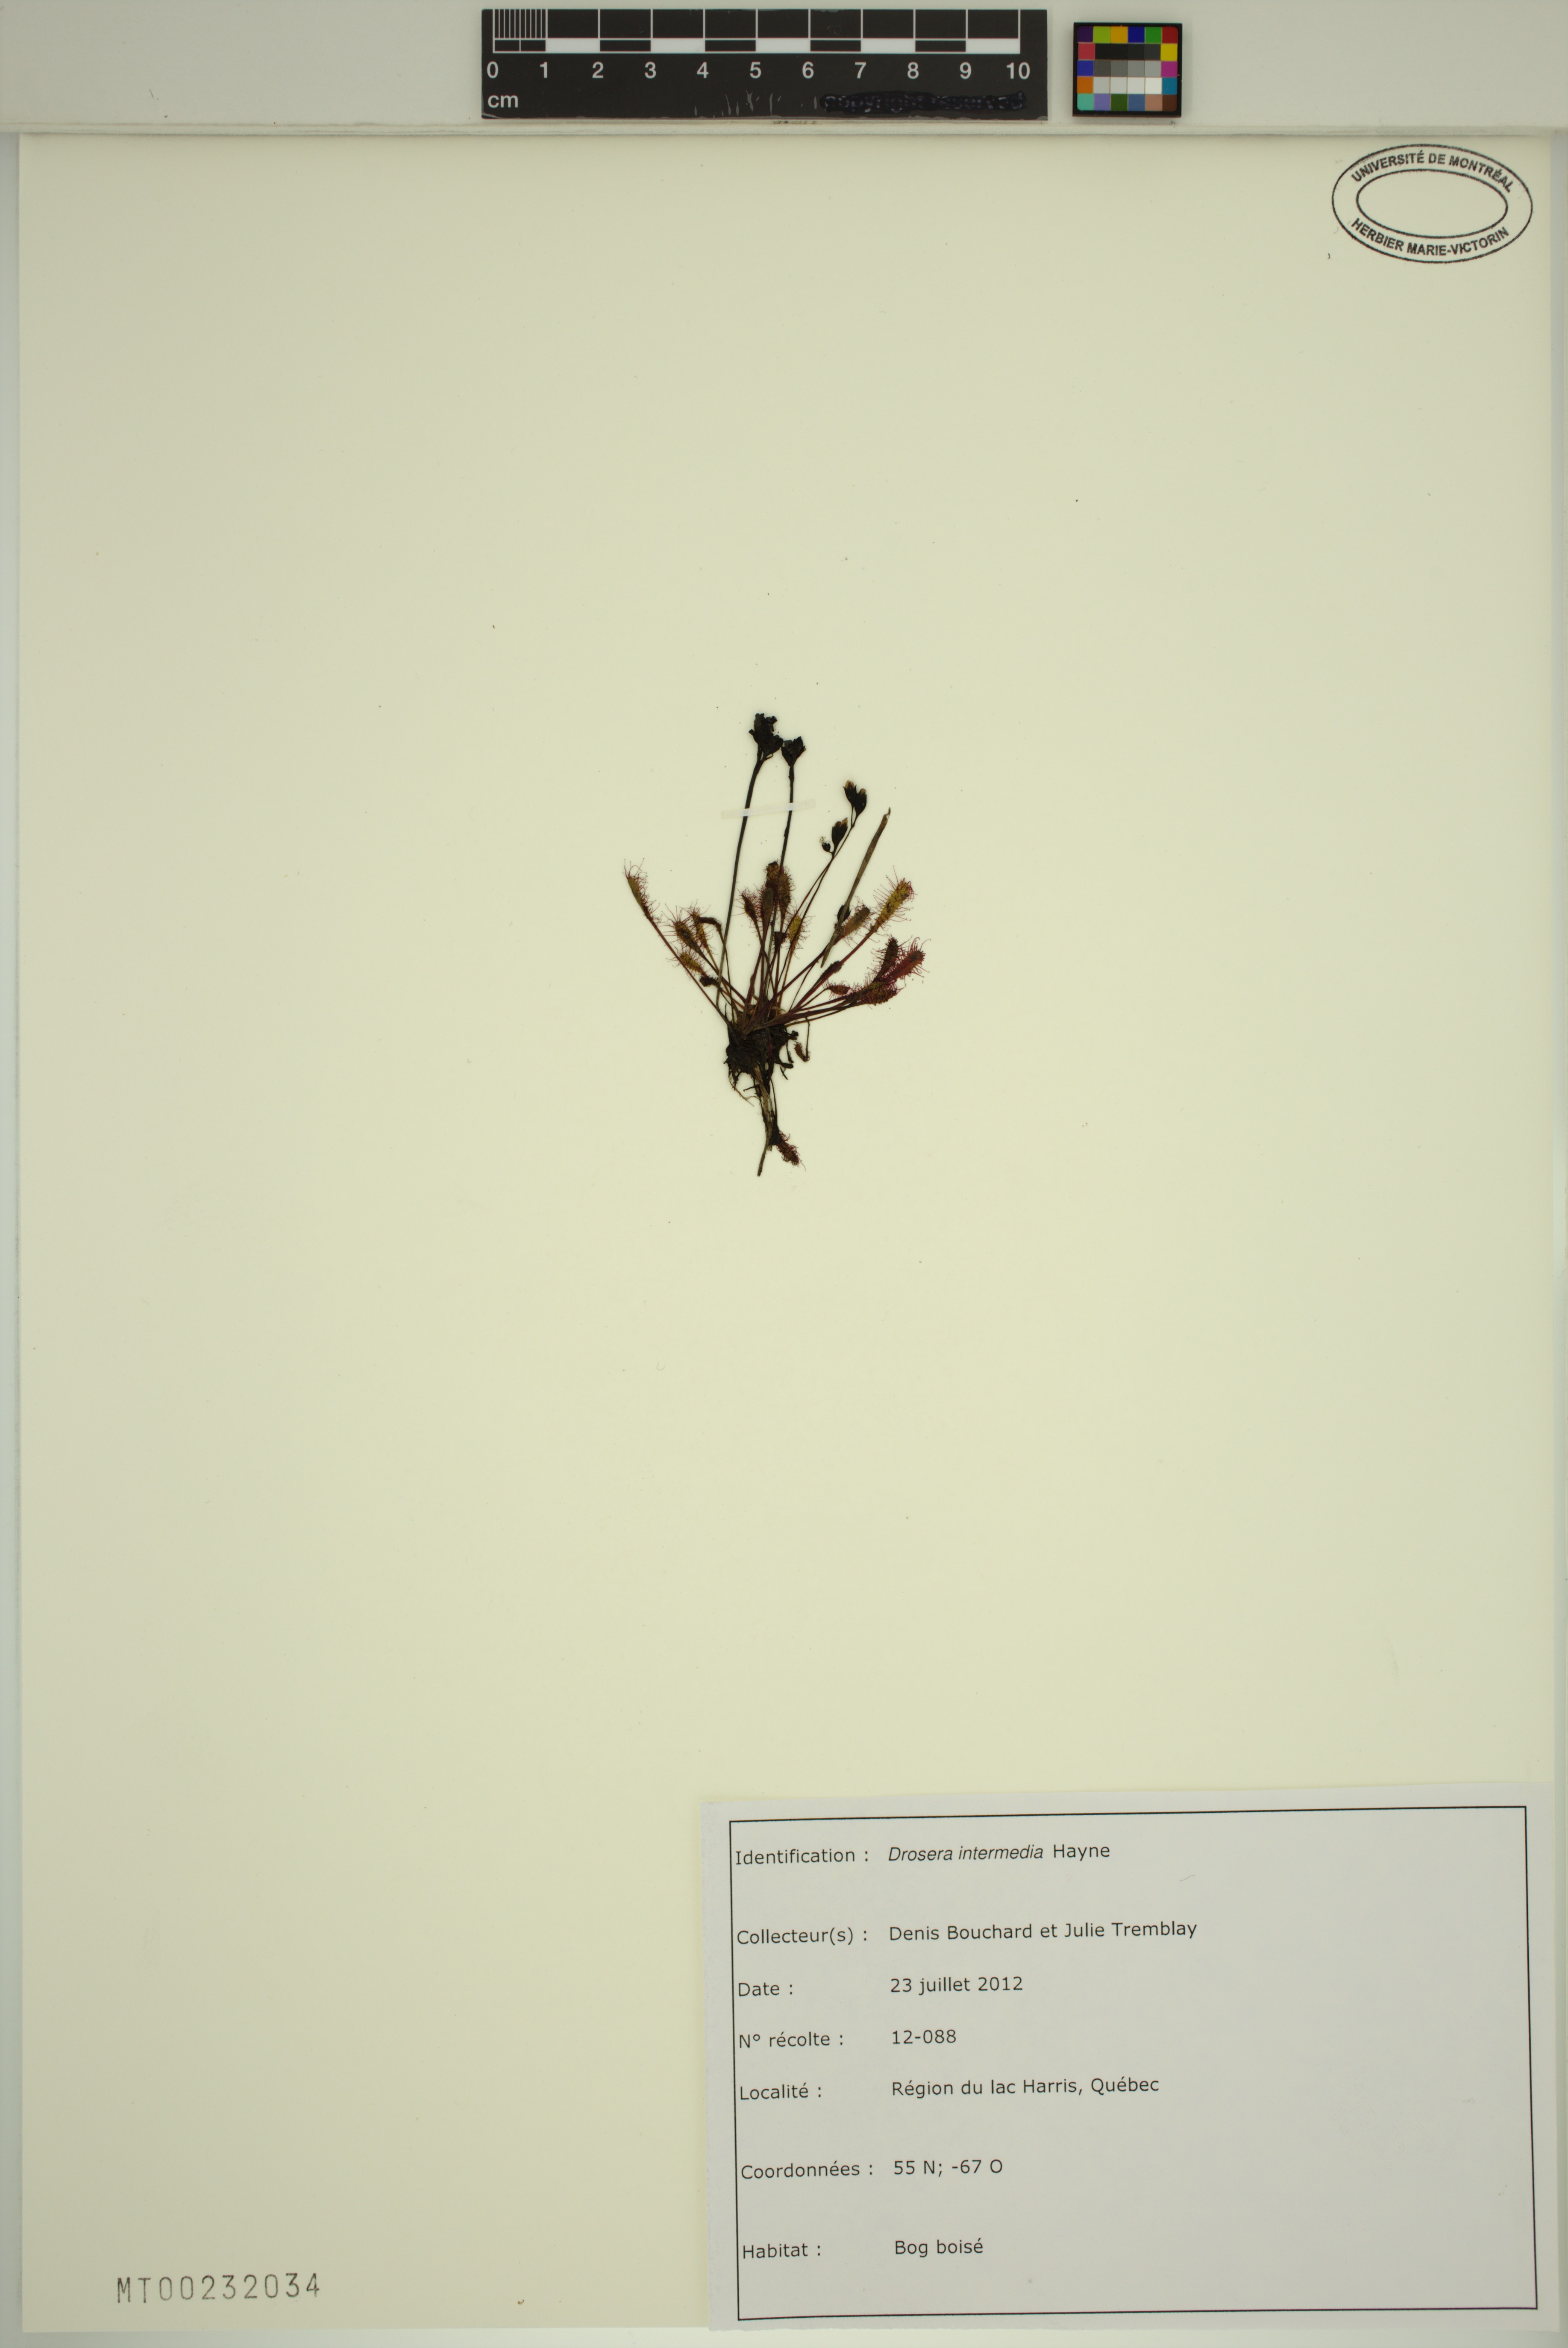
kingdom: Plantae
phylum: Tracheophyta
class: Magnoliopsida
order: Caryophyllales
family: Droseraceae
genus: Drosera
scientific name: Drosera intermedia
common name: Oblong-leaved sundew
